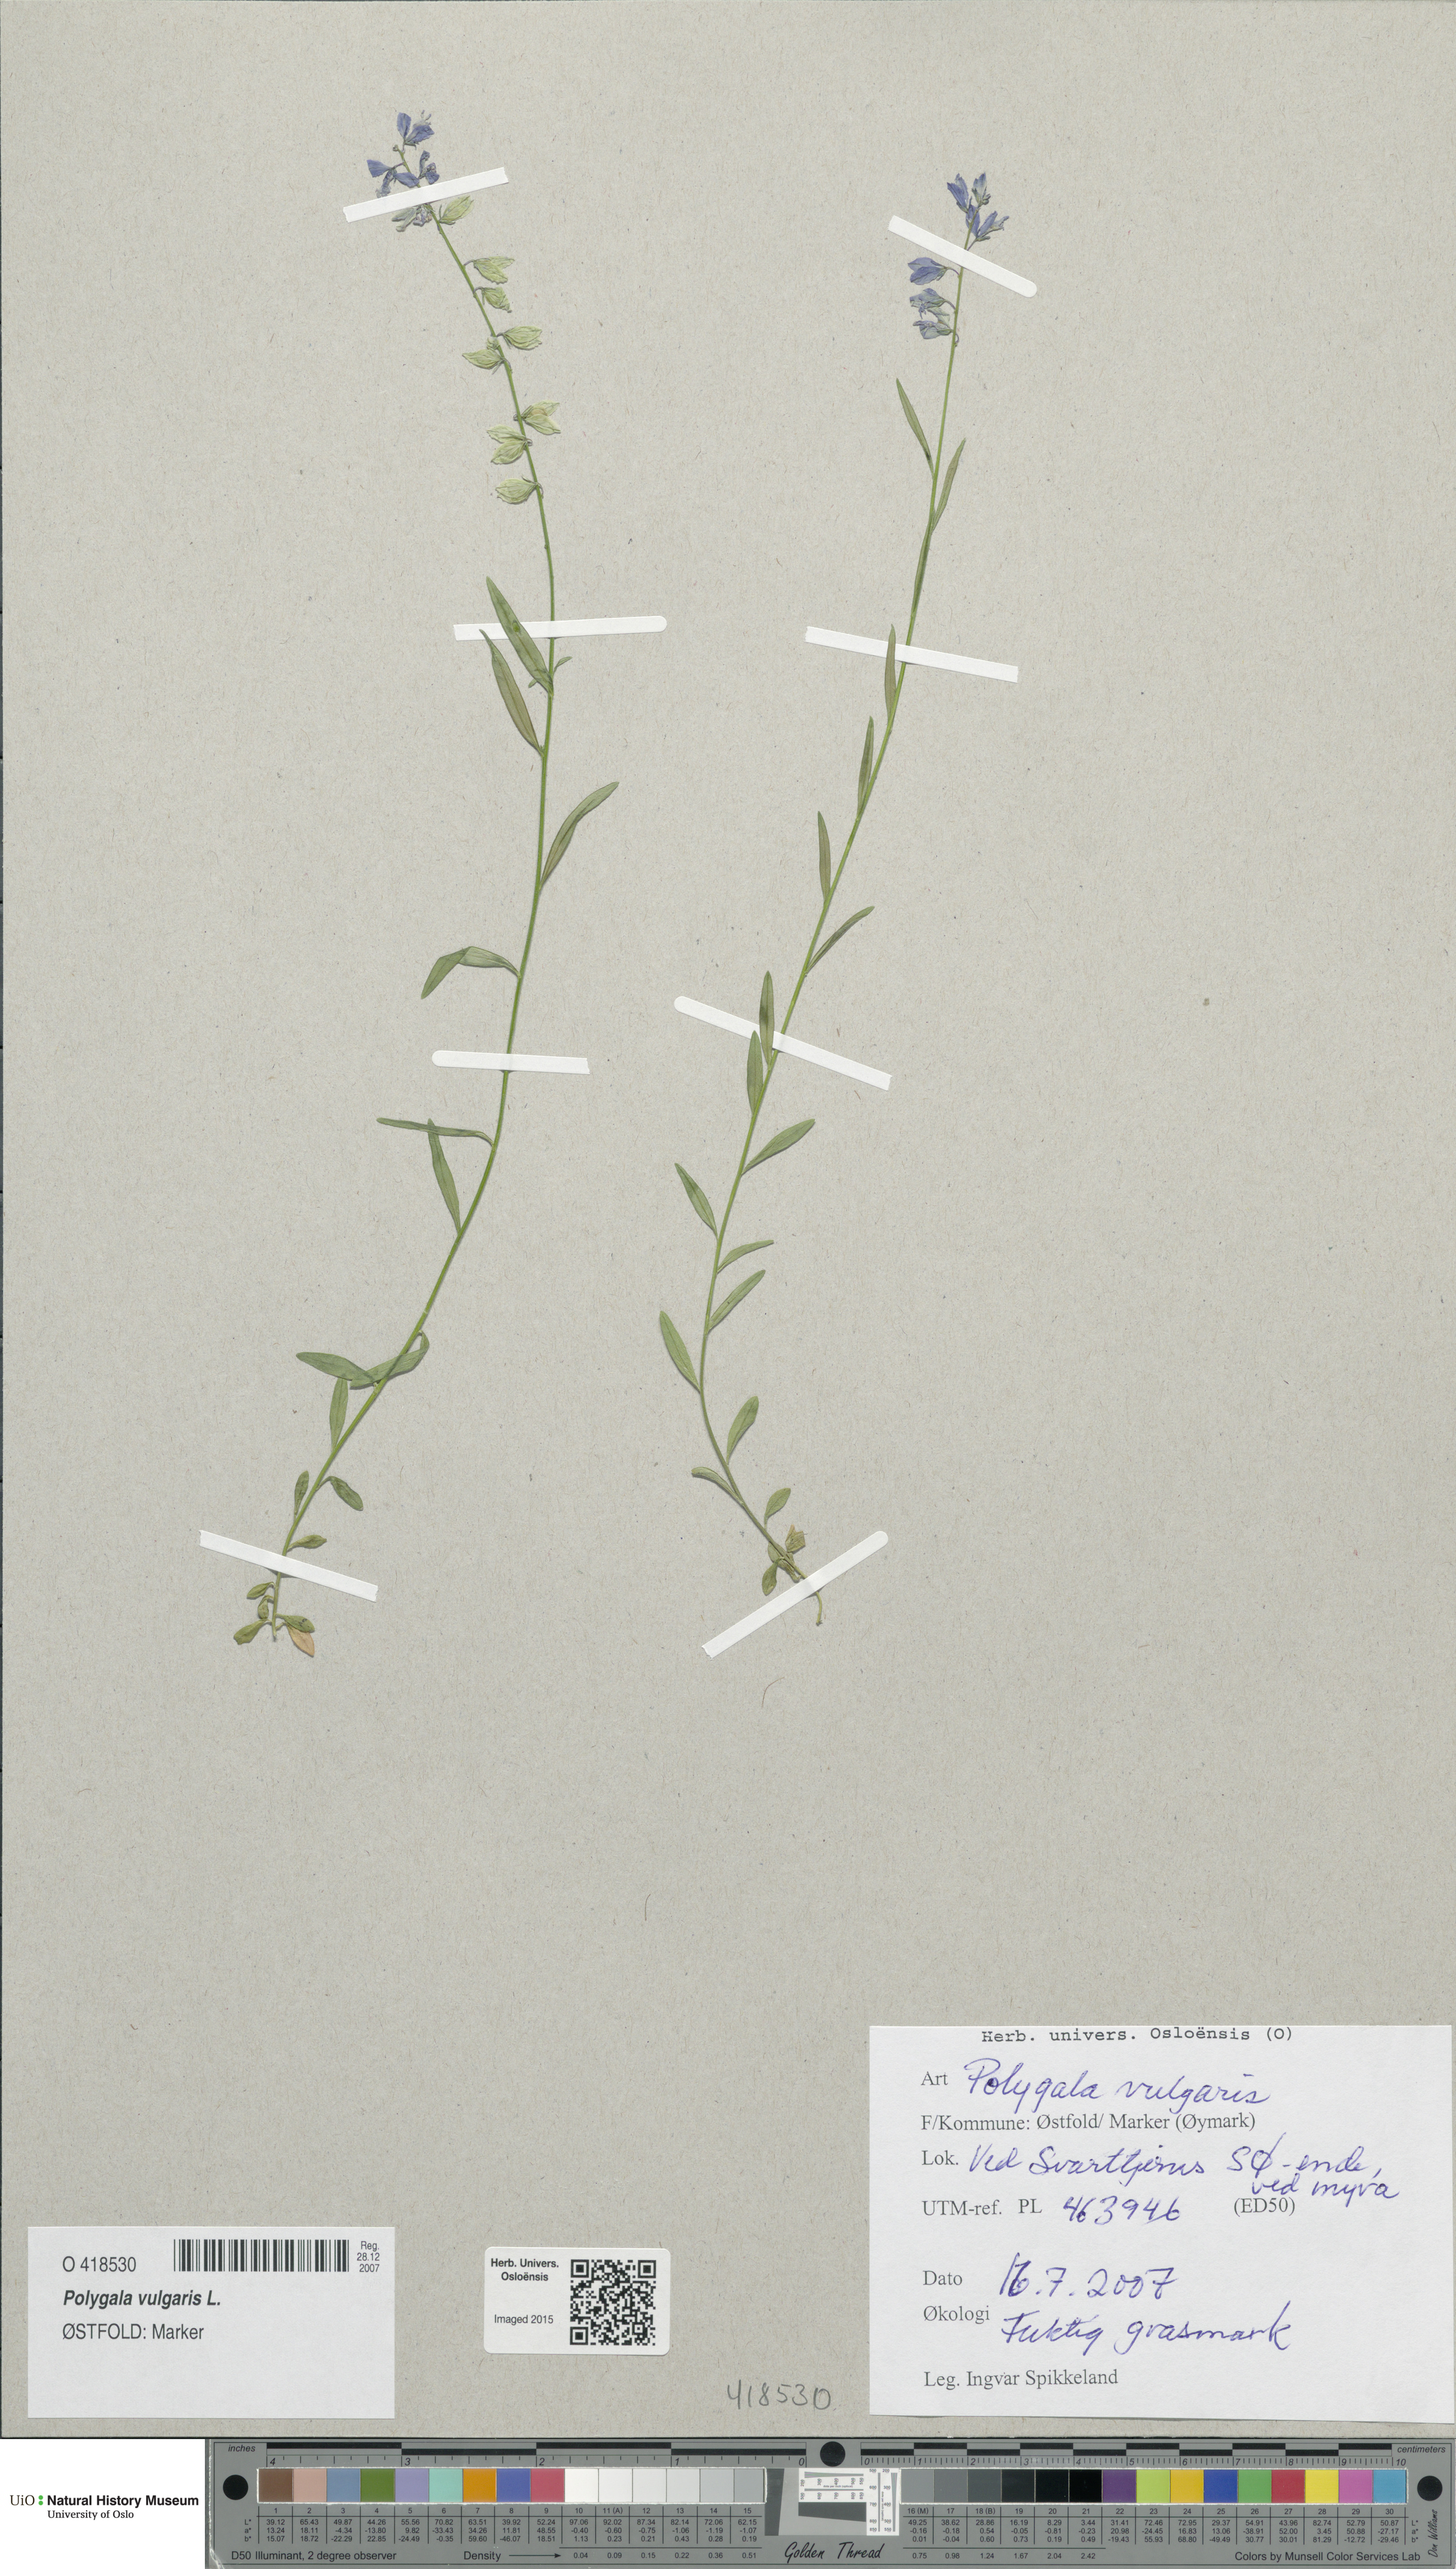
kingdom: Plantae
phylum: Tracheophyta
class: Magnoliopsida
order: Fabales
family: Polygalaceae
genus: Polygala
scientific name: Polygala vulgaris
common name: Common milkwort
